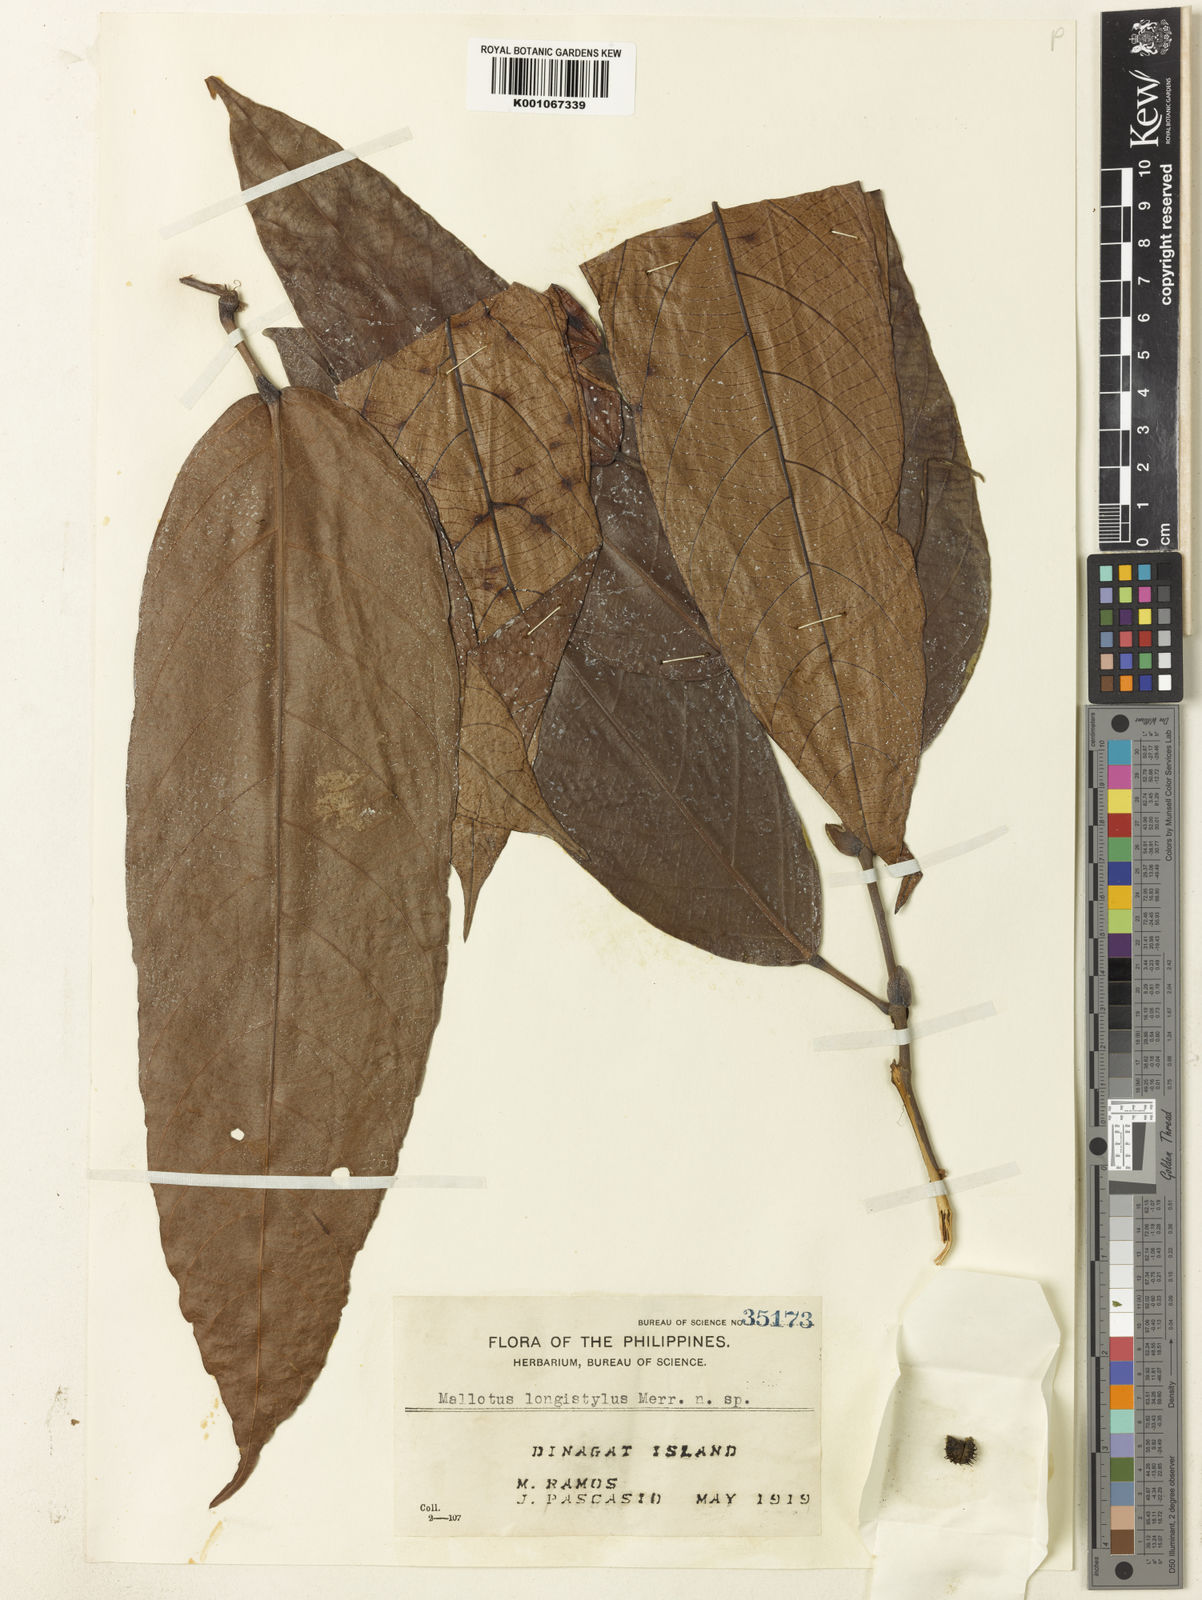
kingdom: Plantae
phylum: Tracheophyta
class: Magnoliopsida
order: Malpighiales
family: Euphorbiaceae
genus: Hancea
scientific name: Hancea longistyla
